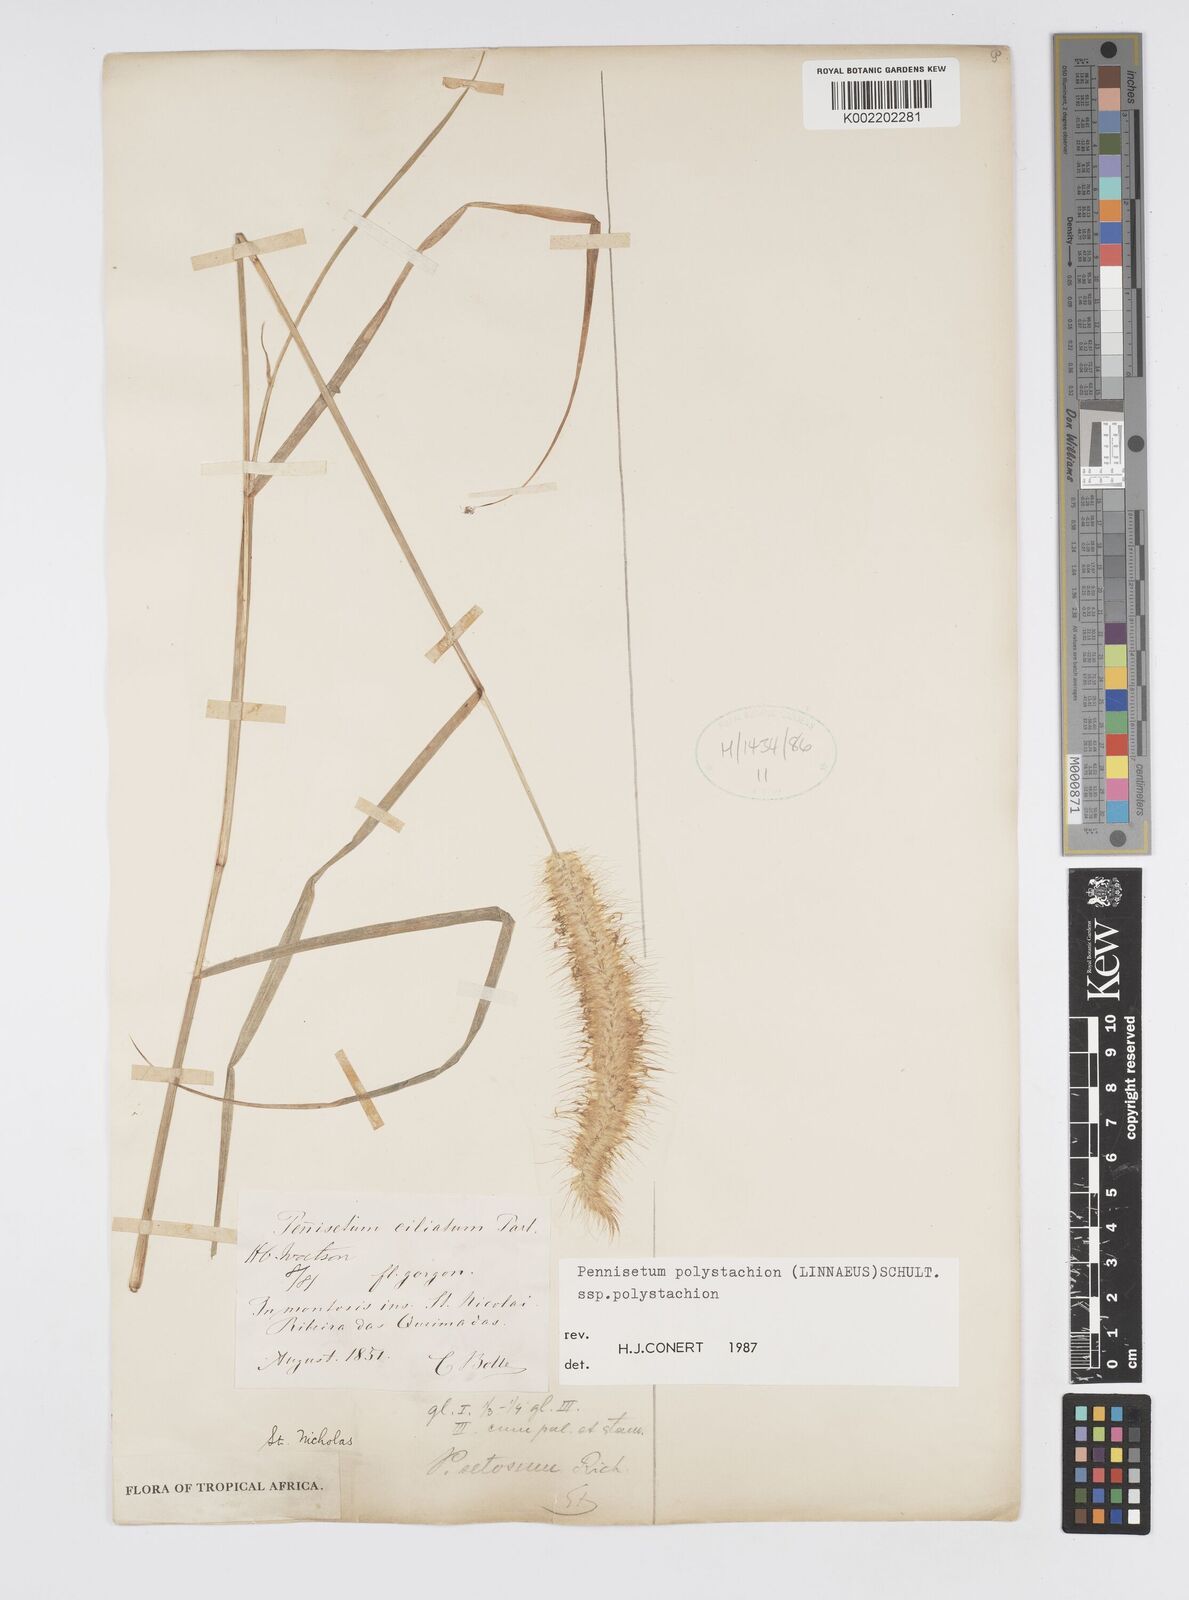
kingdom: Plantae
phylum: Tracheophyta
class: Liliopsida
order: Poales
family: Poaceae
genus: Setaria
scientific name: Setaria parviflora
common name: Knotroot bristle-grass
